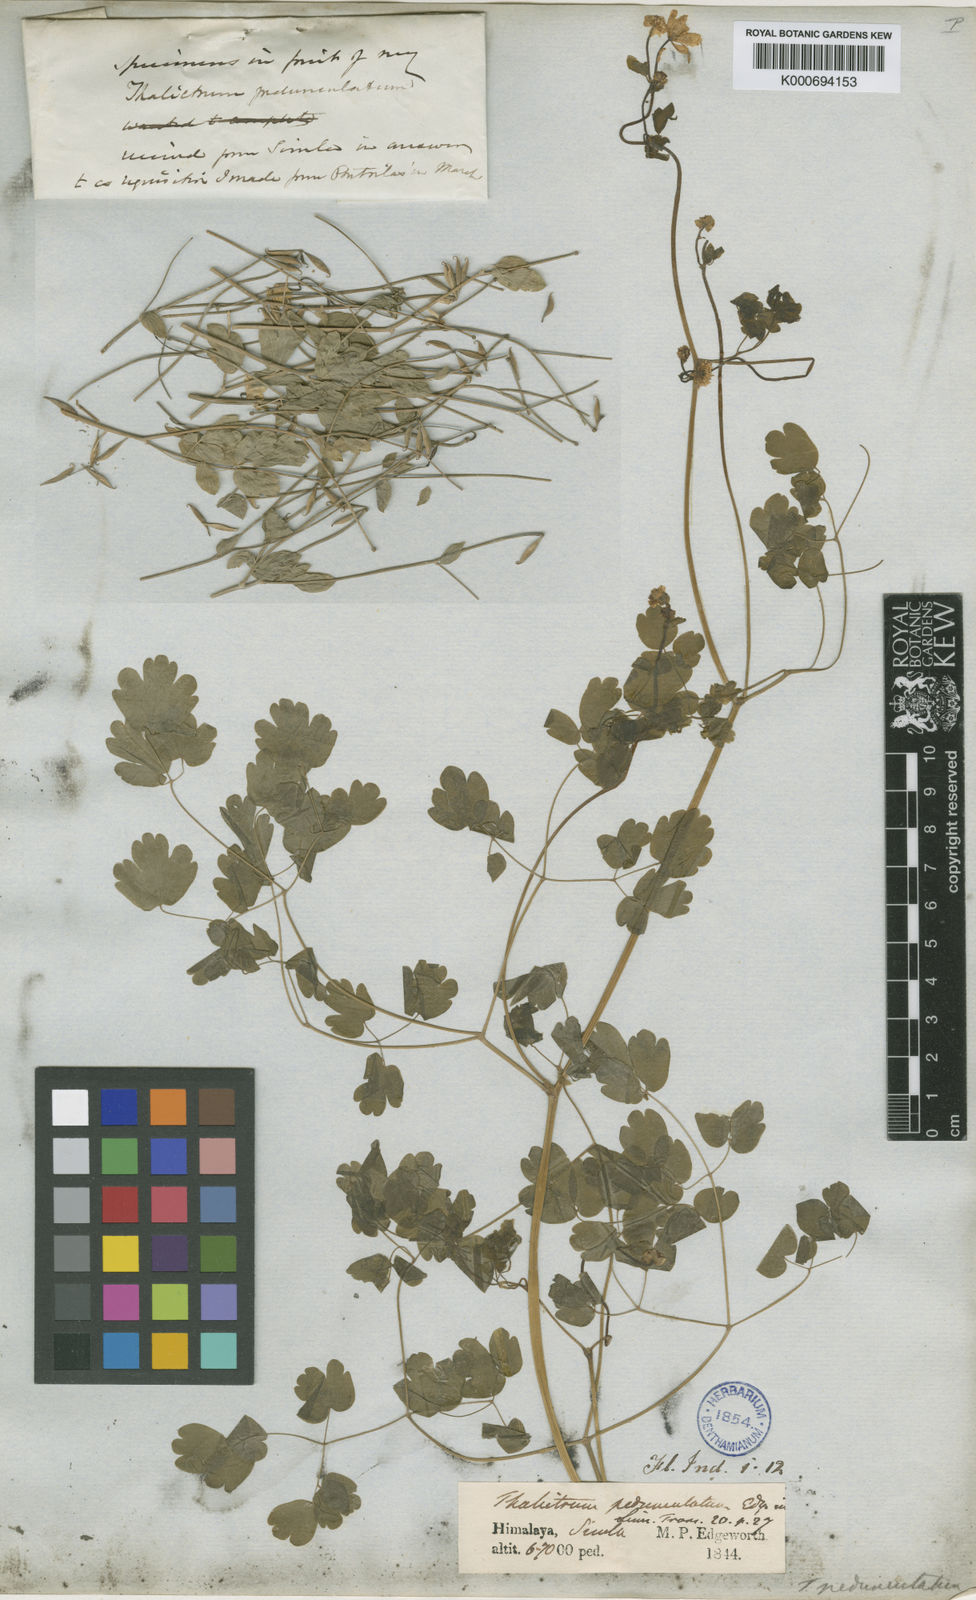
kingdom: Plantae
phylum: Tracheophyta
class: Magnoliopsida
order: Ranunculales
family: Ranunculaceae
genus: Thalictrum
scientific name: Thalictrum pedunculatum
